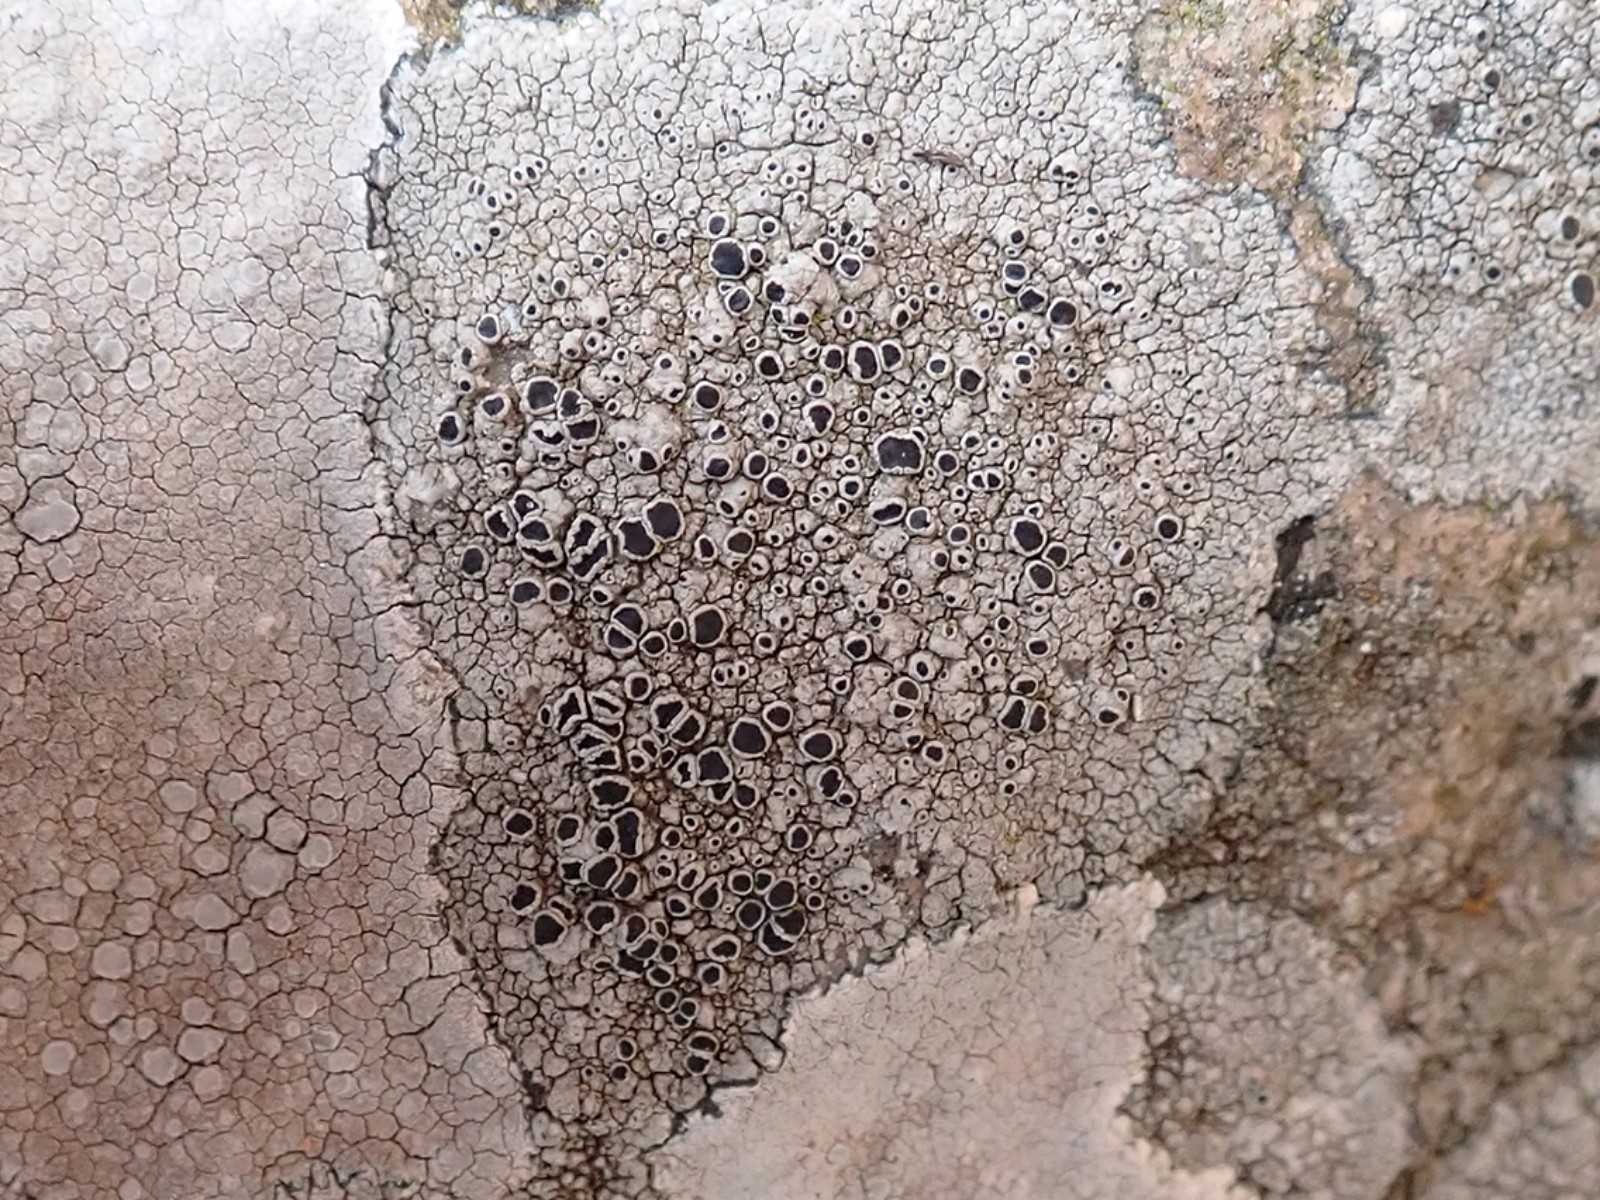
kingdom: Fungi
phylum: Ascomycota
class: Lecanoromycetes
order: Lecanorales
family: Tephromelataceae
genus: Tephromela
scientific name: Tephromela atra
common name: sortfrugtet kantskivelav
